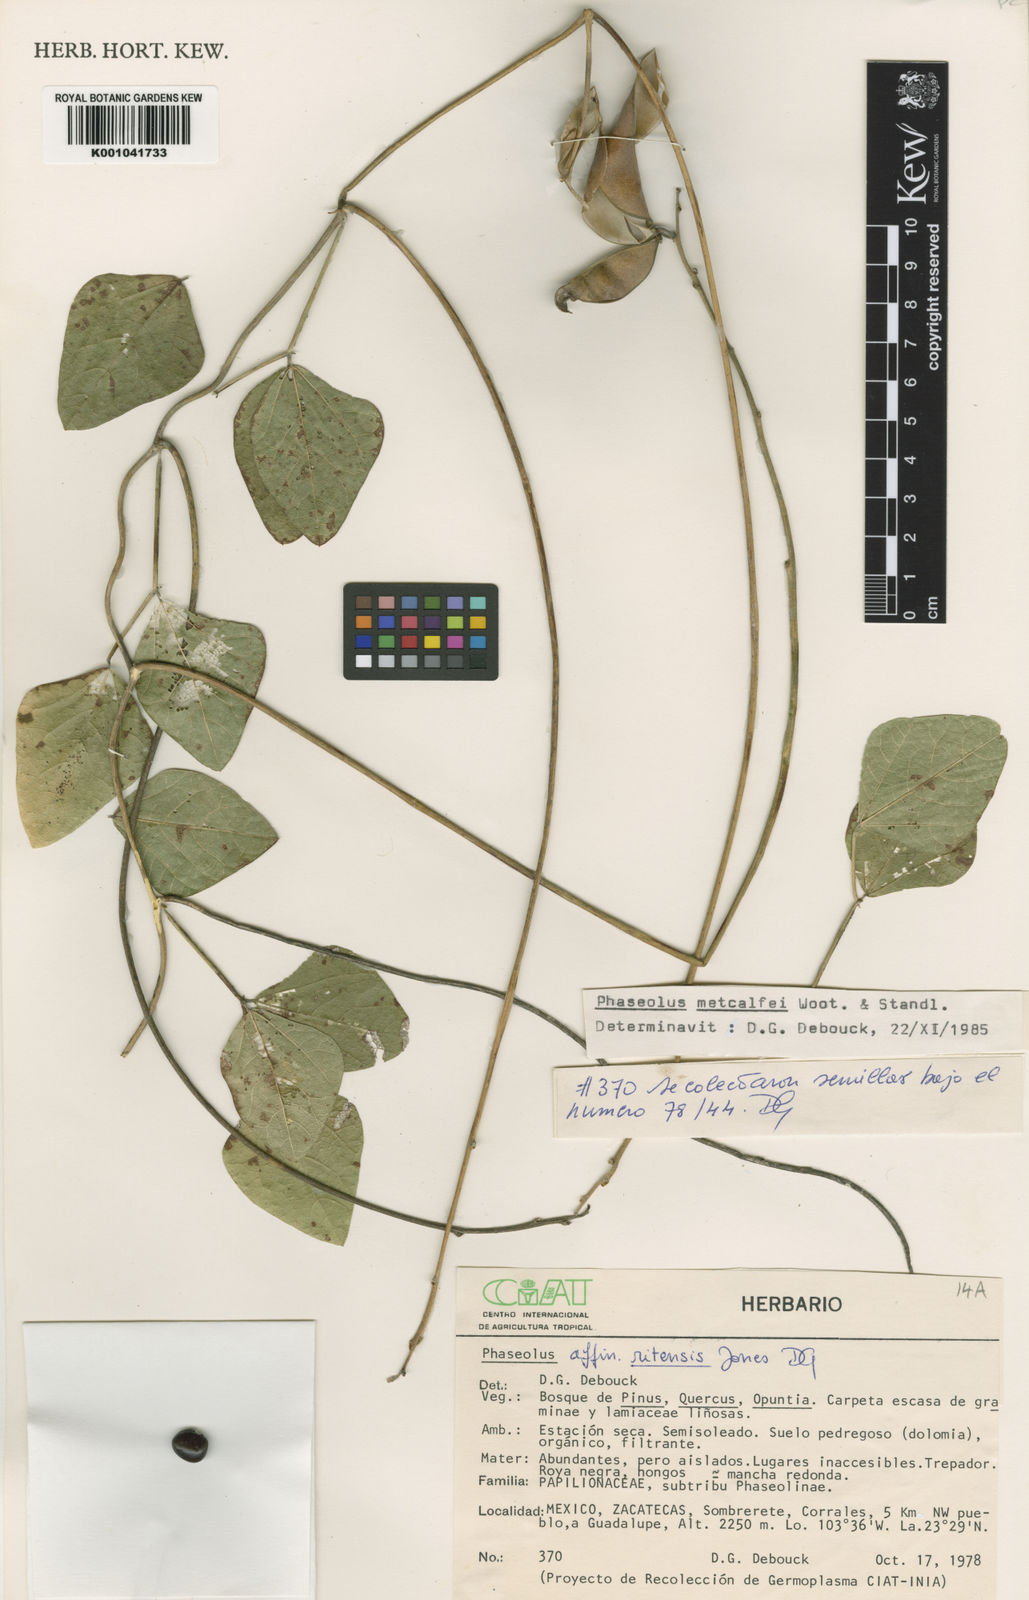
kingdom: Plantae
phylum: Tracheophyta
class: Magnoliopsida
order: Fabales
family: Fabaceae
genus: Phaseolus
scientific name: Phaseolus
